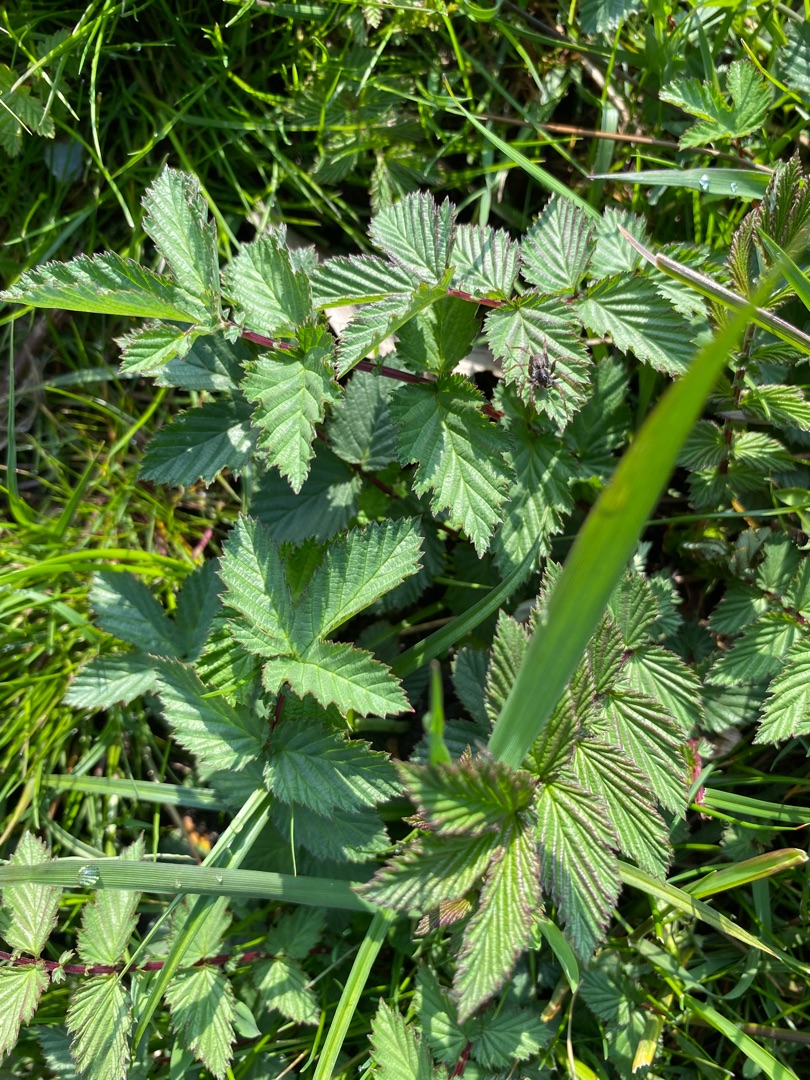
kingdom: Plantae
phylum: Tracheophyta
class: Magnoliopsida
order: Rosales
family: Rosaceae
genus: Filipendula
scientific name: Filipendula ulmaria
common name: Almindelig mjødurt
